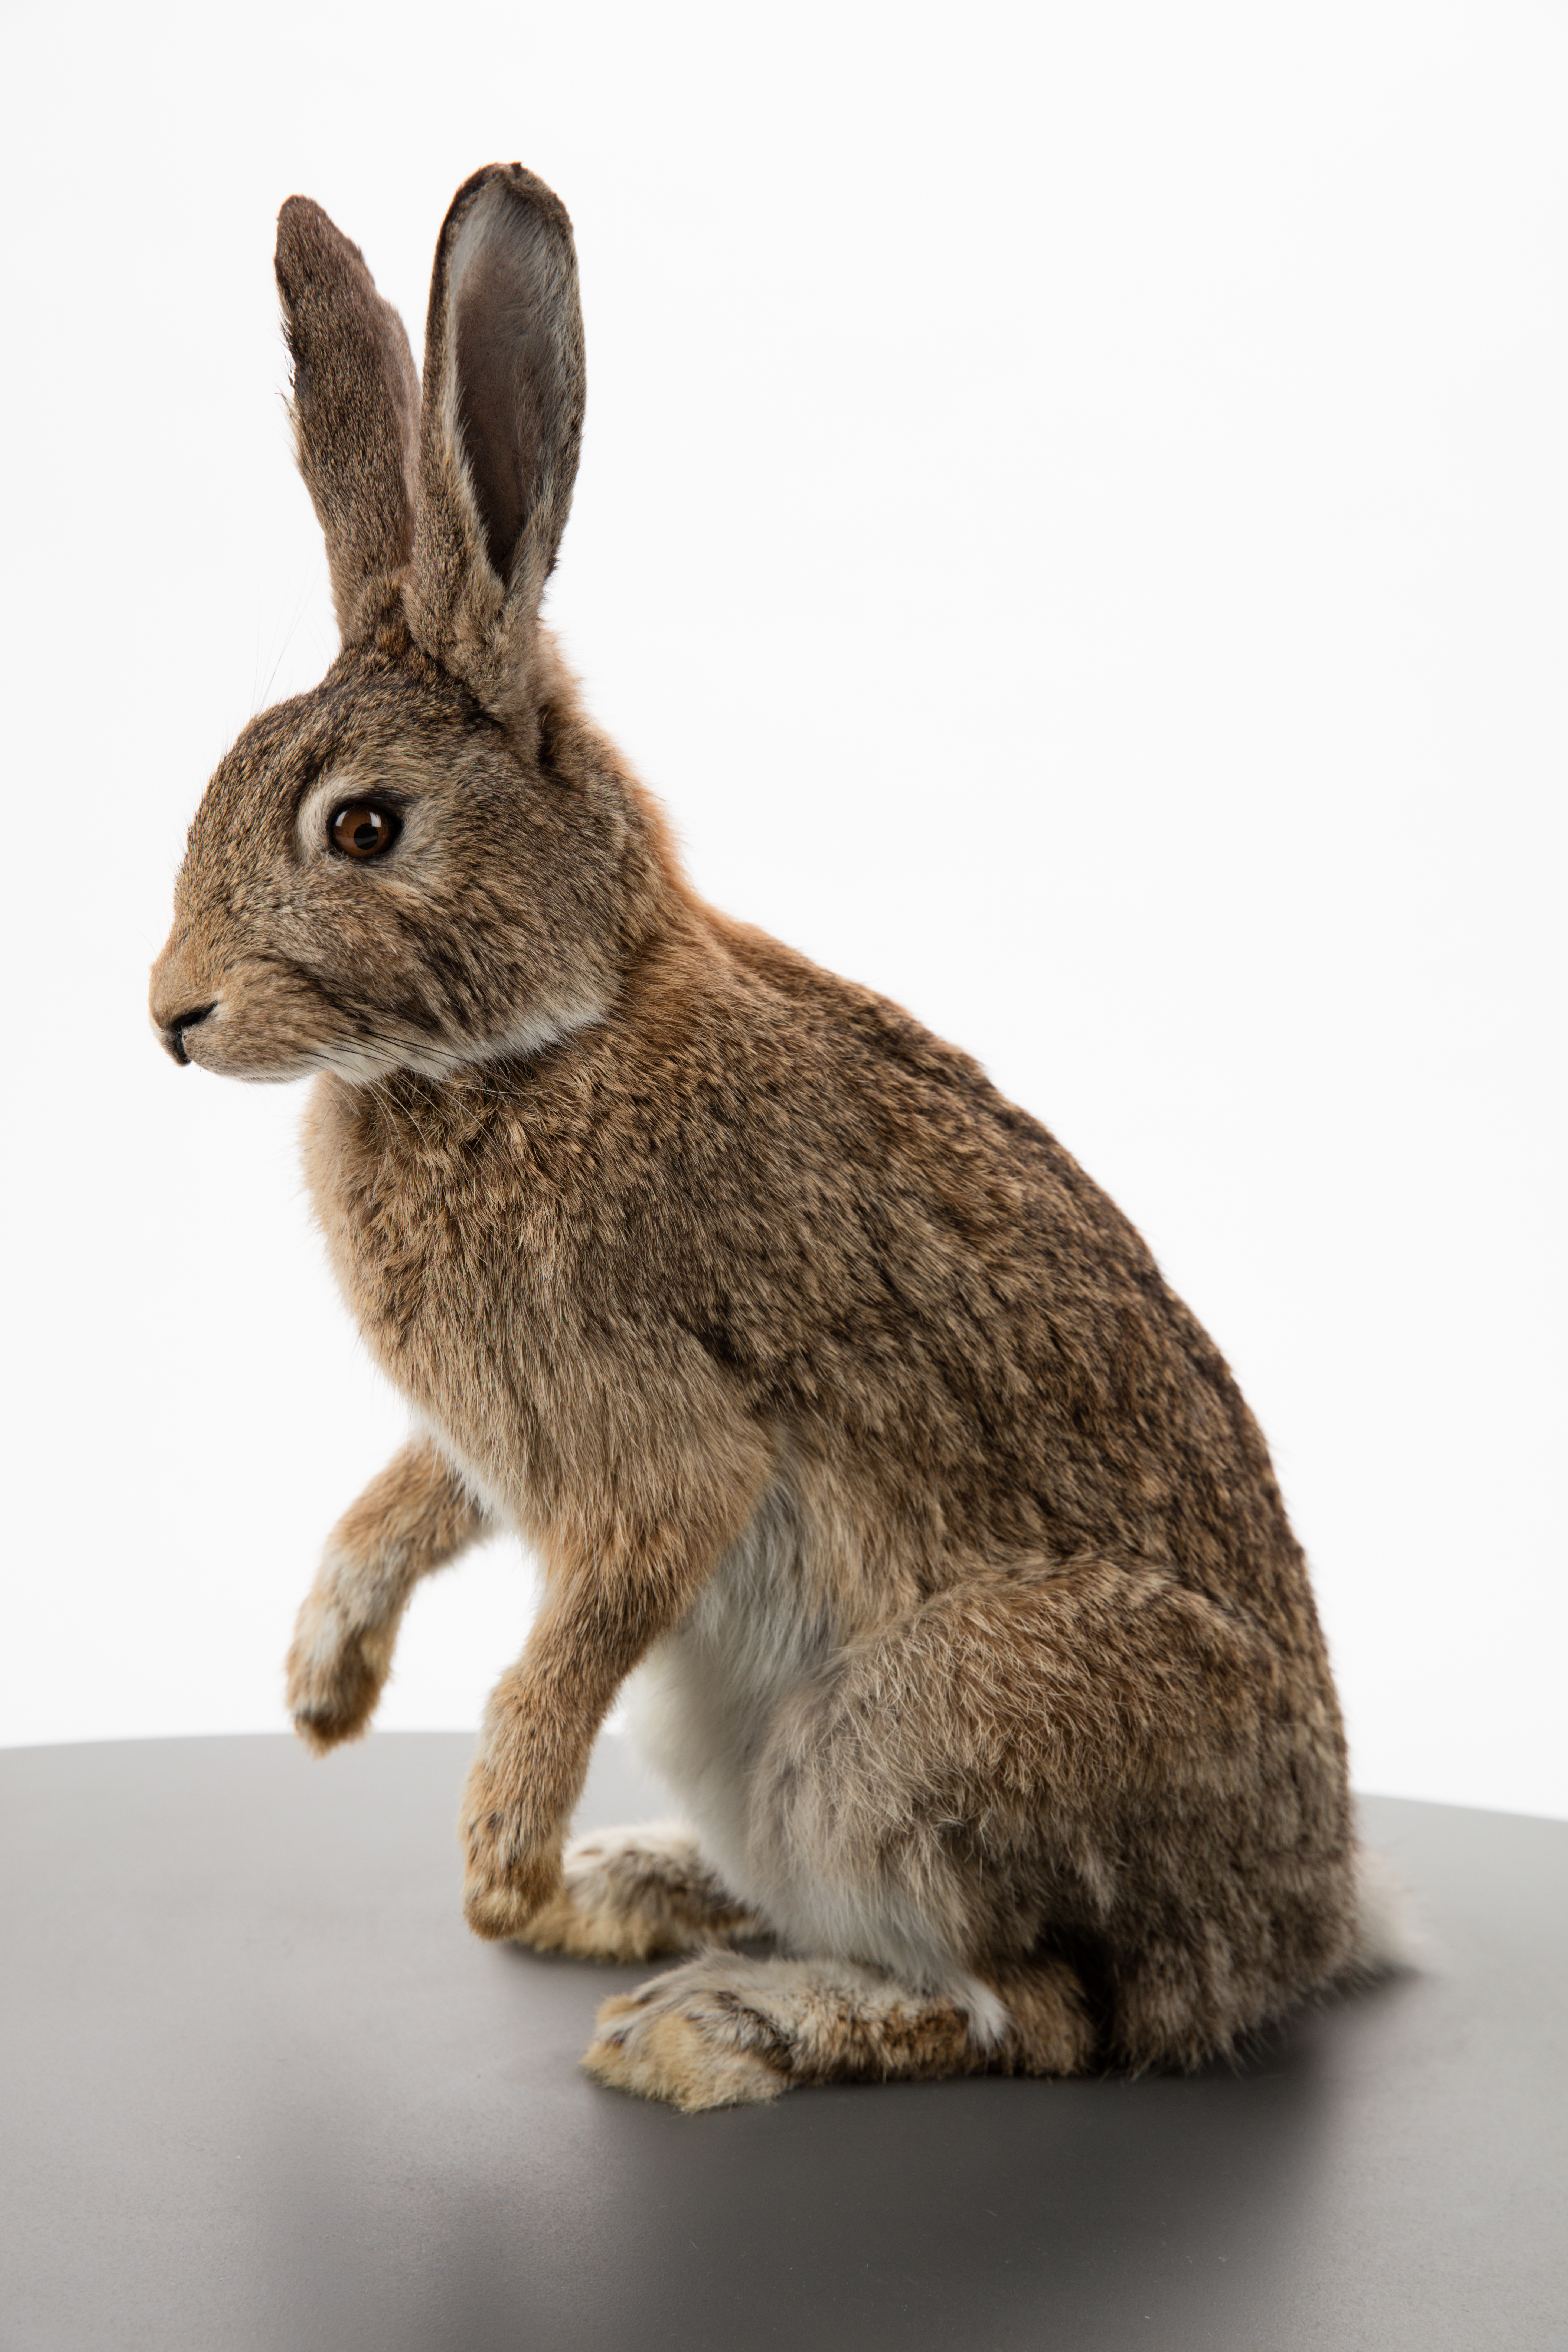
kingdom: Animalia
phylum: Chordata
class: Mammalia
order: Lagomorpha
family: Leporidae
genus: Oryctolagus
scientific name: Oryctolagus cuniculus
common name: European rabbit
